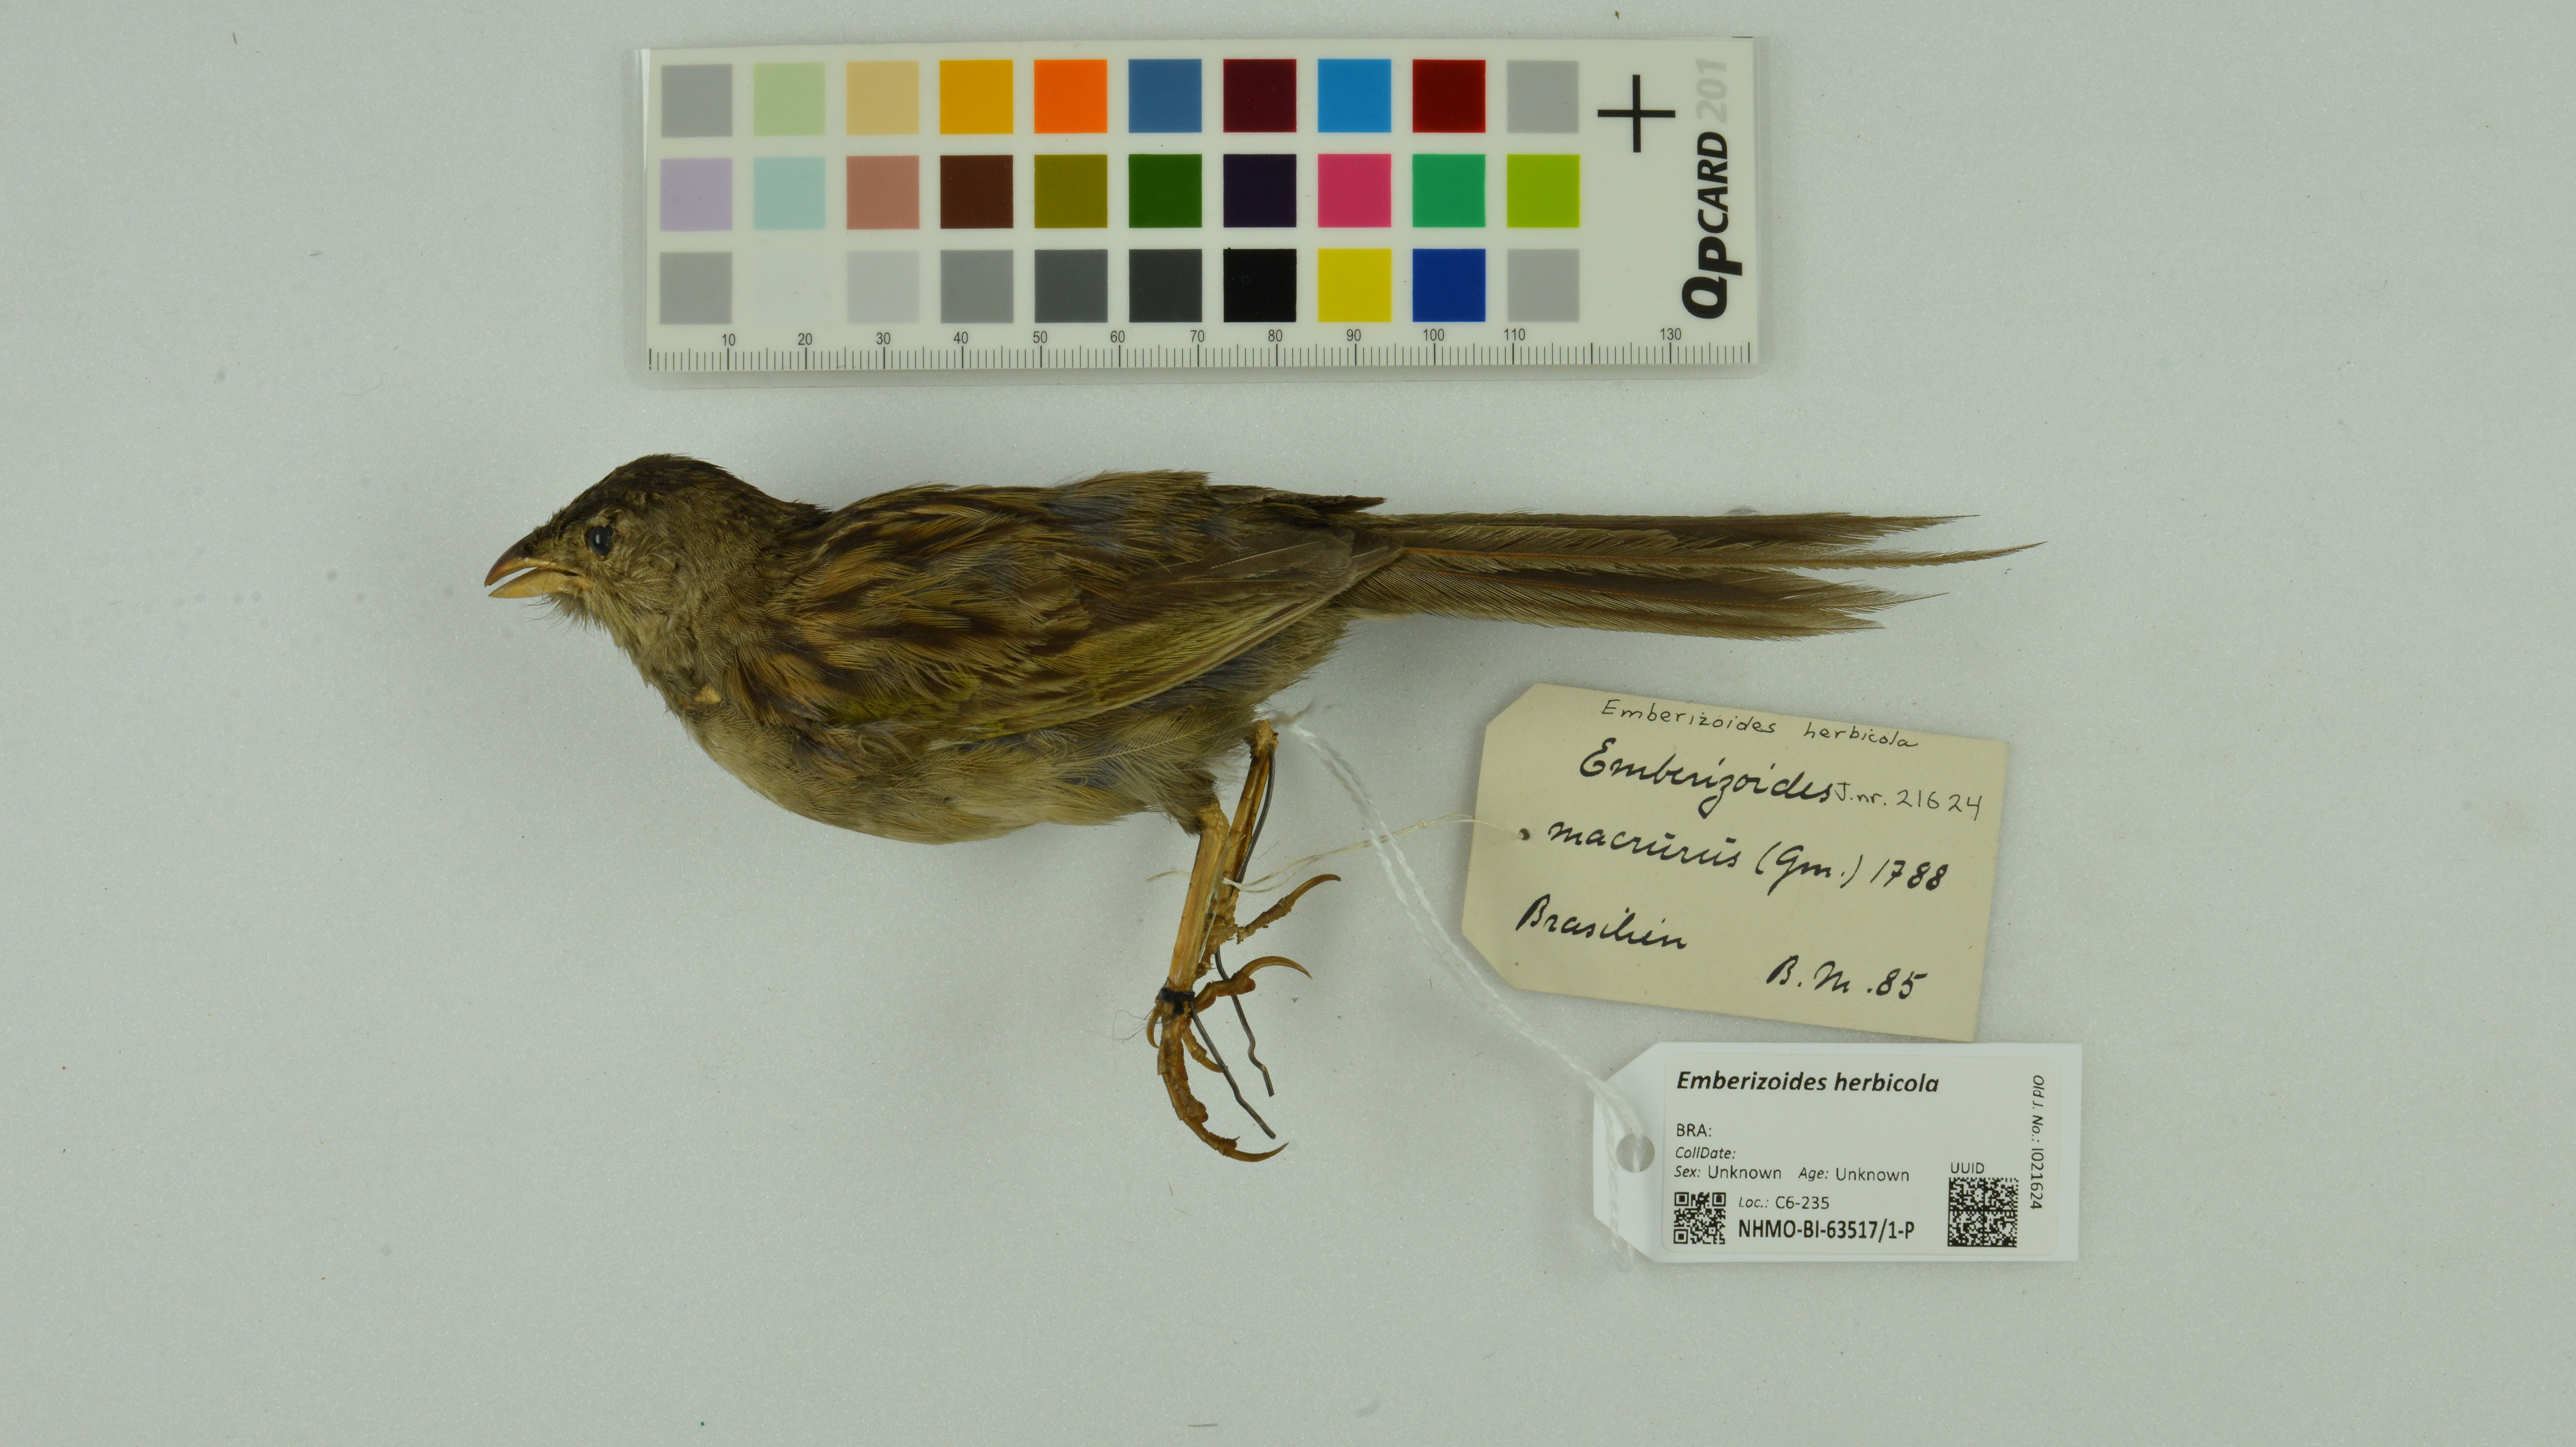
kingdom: Animalia
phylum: Chordata
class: Aves
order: Passeriformes
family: Thraupidae
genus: Emberizoides
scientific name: Emberizoides herbicola
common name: Wedge-tailed grass-finch
